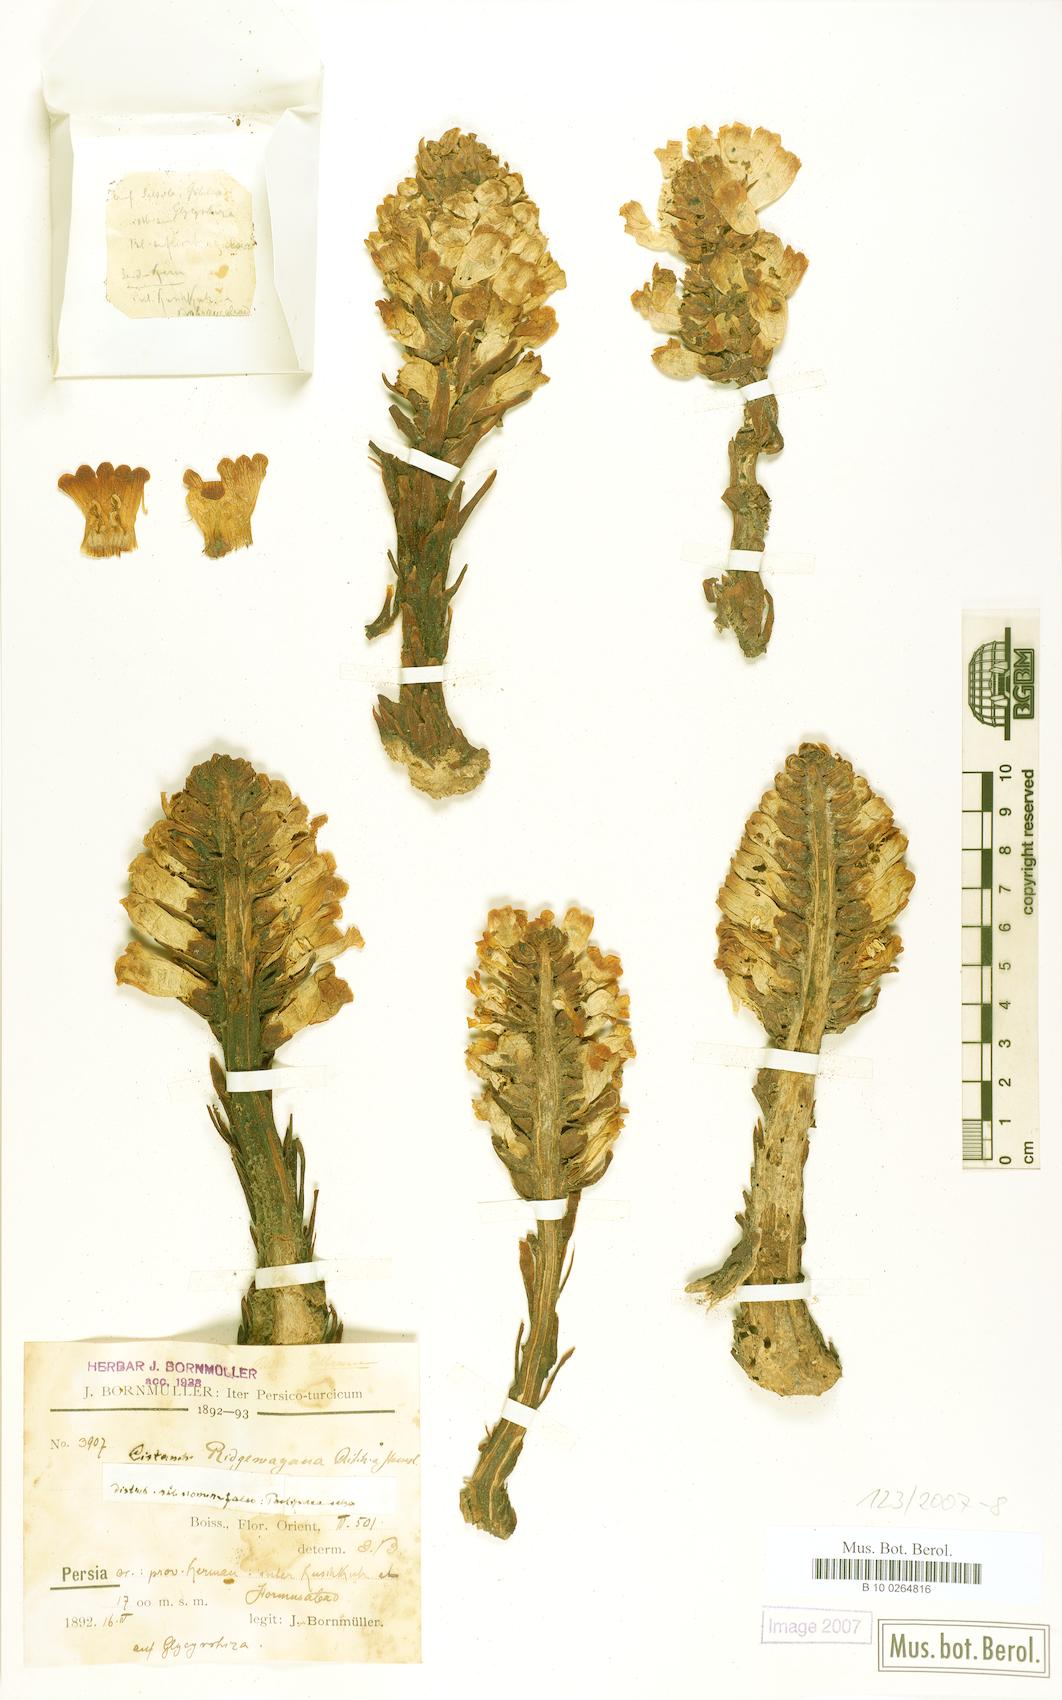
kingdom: Plantae
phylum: Tracheophyta
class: Magnoliopsida
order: Lamiales
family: Orobanchaceae
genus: Cistanche
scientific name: Cistanche ridgewayana
